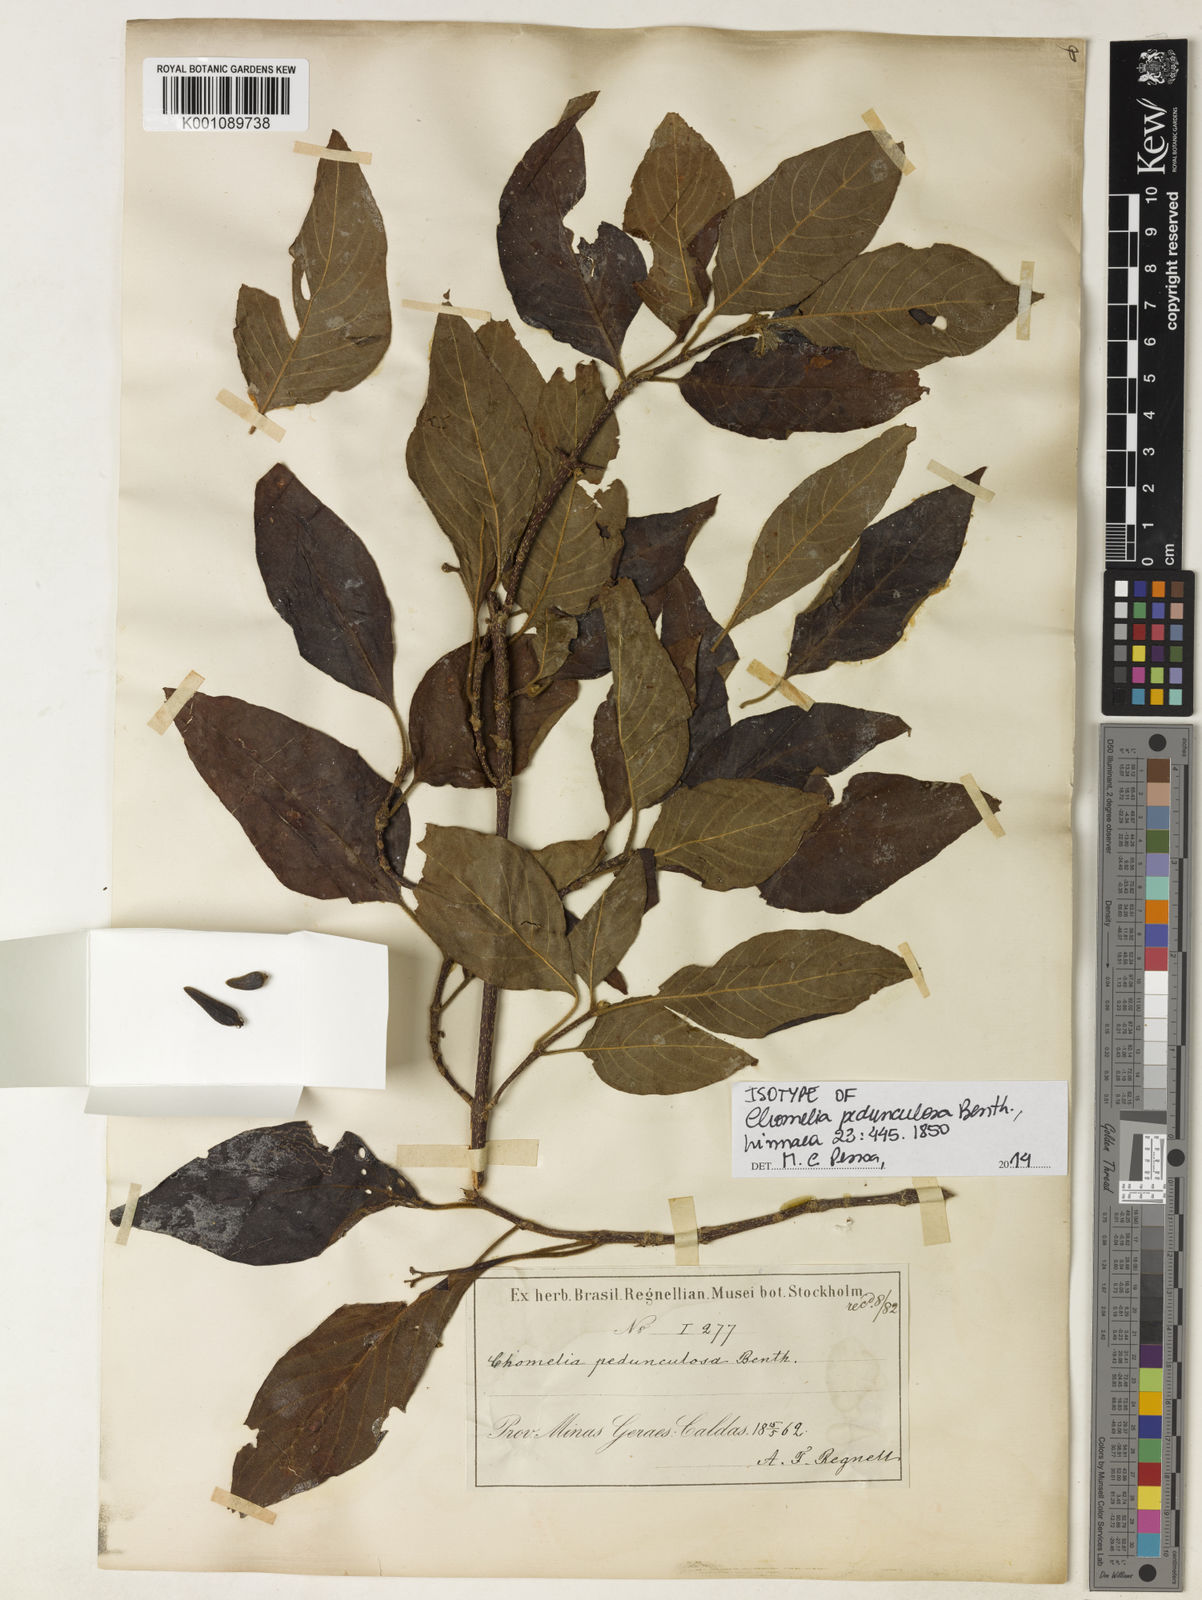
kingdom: Plantae
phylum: Tracheophyta
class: Magnoliopsida
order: Gentianales
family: Rubiaceae
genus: Chomelia
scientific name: Chomelia pedunculosa
